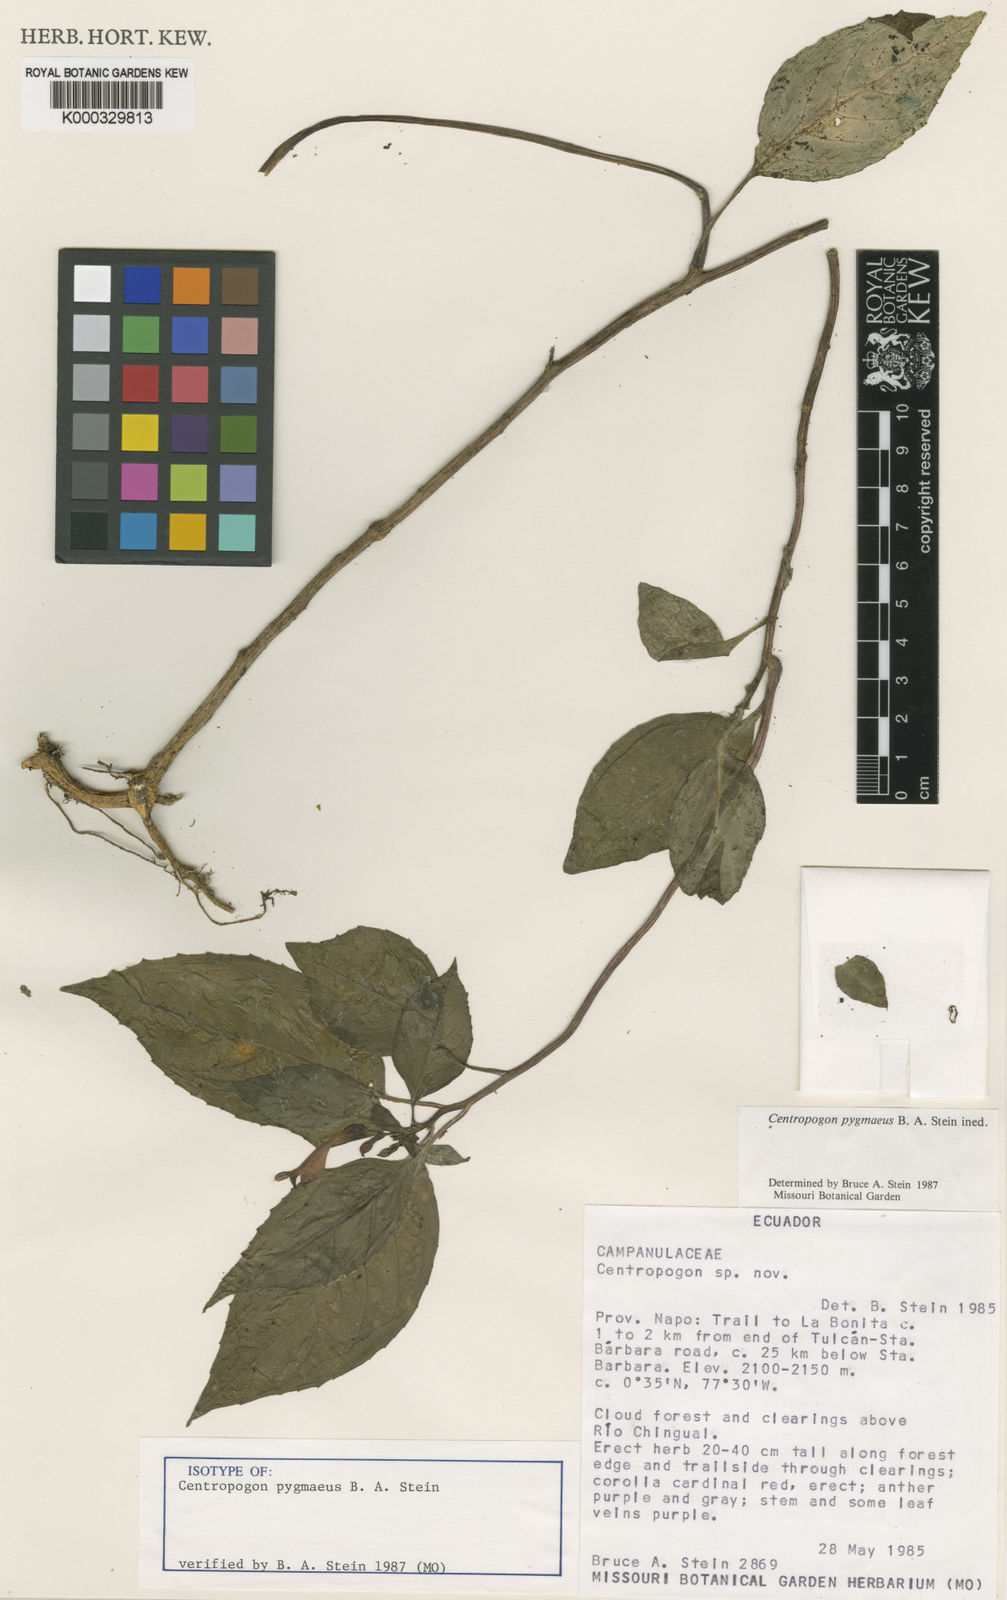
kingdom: Plantae
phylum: Tracheophyta
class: Magnoliopsida
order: Asterales
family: Campanulaceae
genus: Centropogon
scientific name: Centropogon
